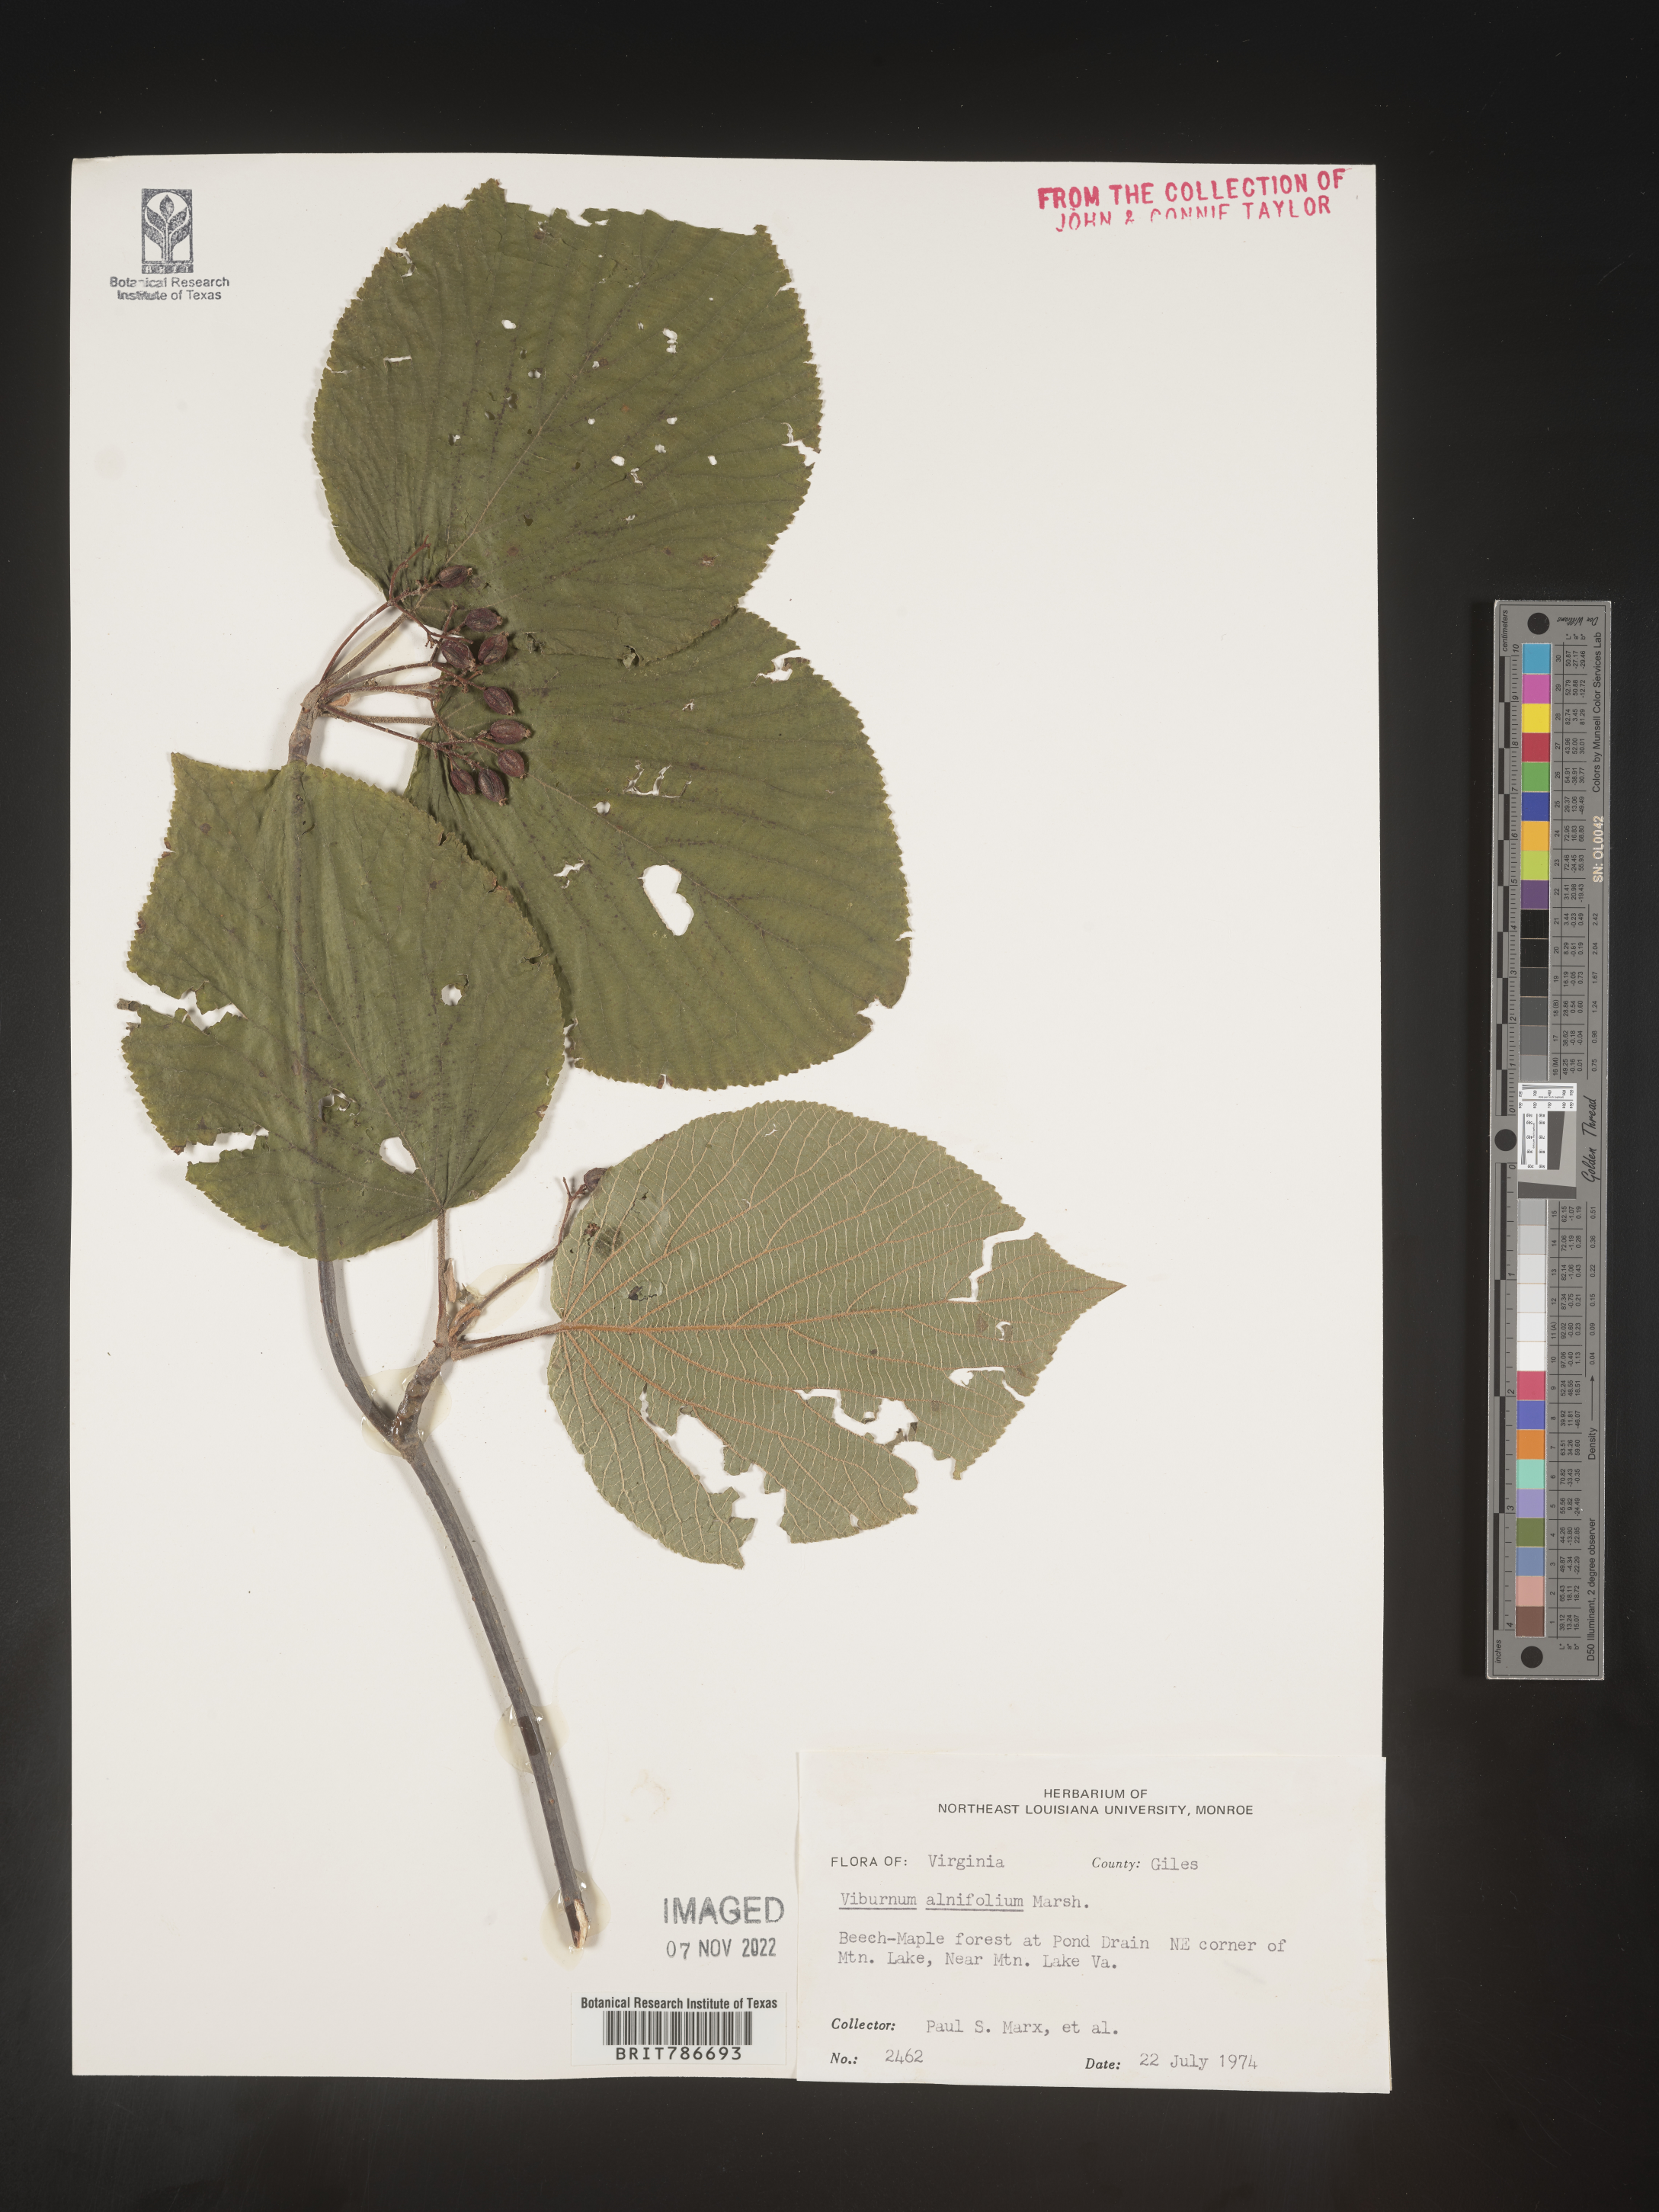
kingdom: Plantae
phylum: Tracheophyta
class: Magnoliopsida
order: Dipsacales
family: Viburnaceae
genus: Viburnum
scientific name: Viburnum lantanoides
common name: Hobblebush
